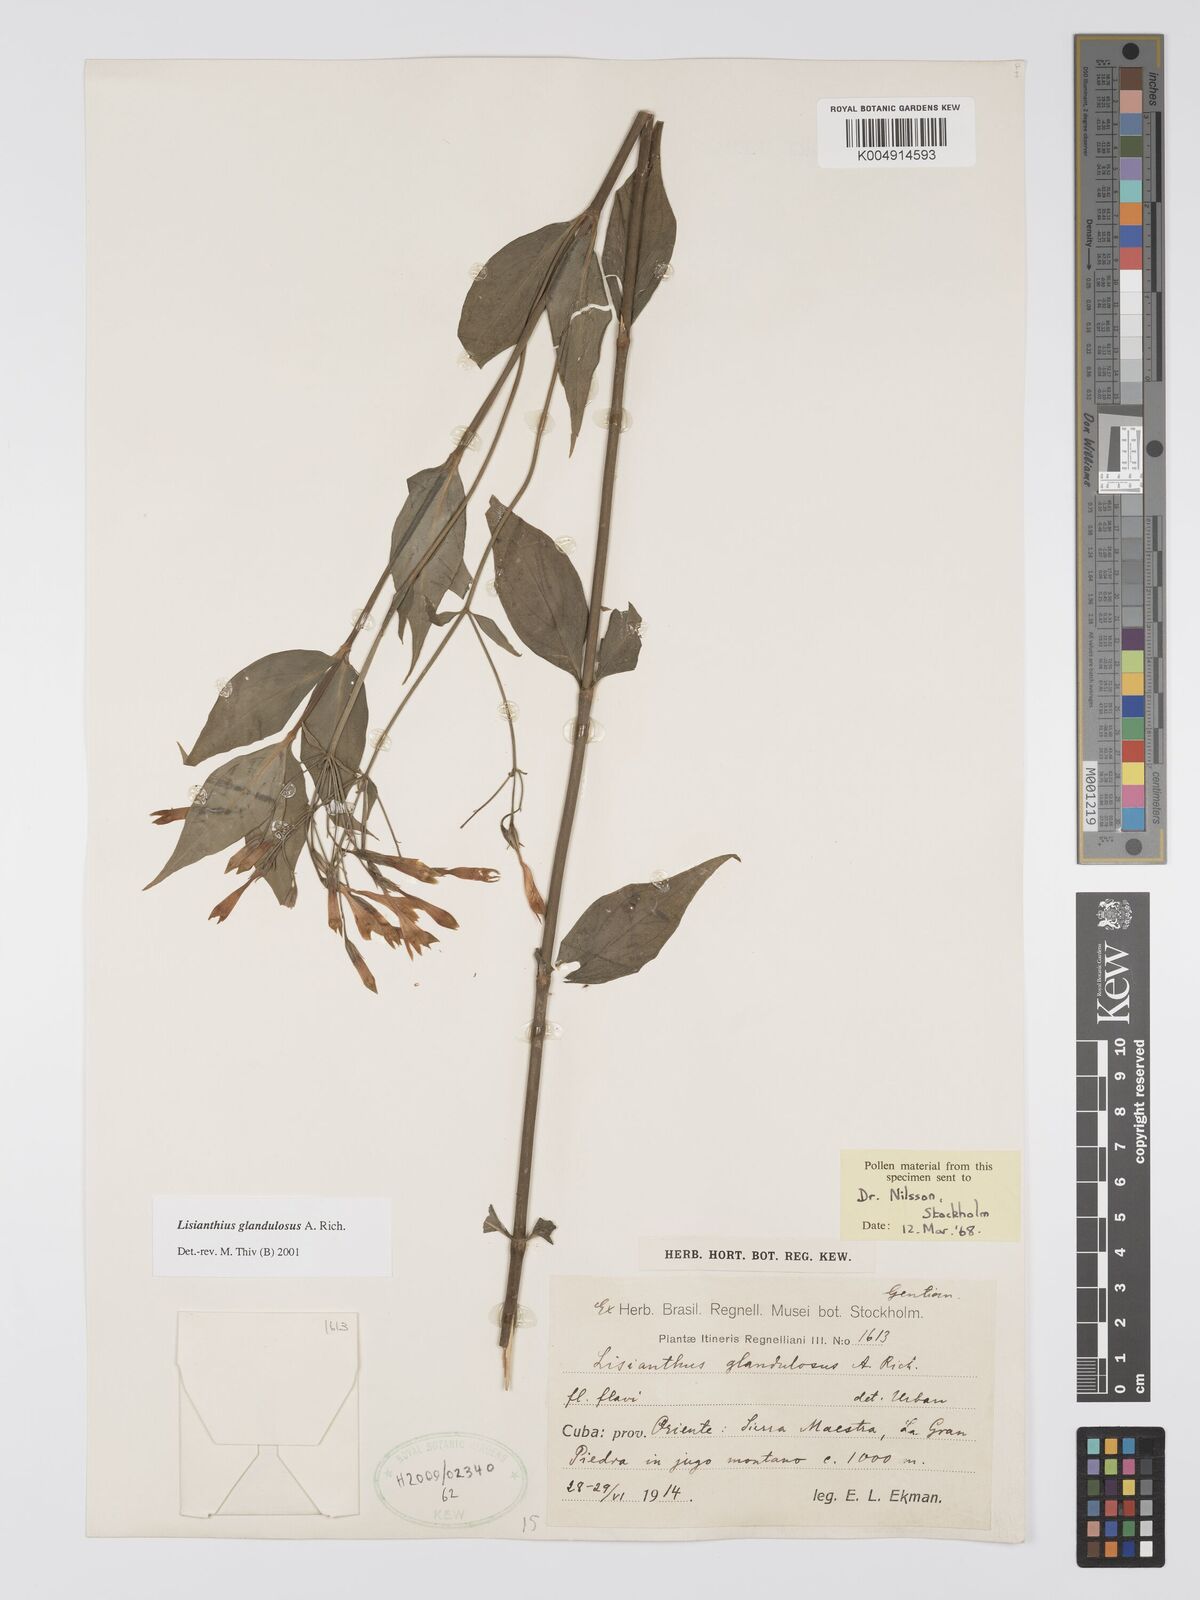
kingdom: Plantae
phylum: Tracheophyta
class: Magnoliopsida
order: Gentianales
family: Gentianaceae
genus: Lisianthus
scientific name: Lisianthus glandulosus
